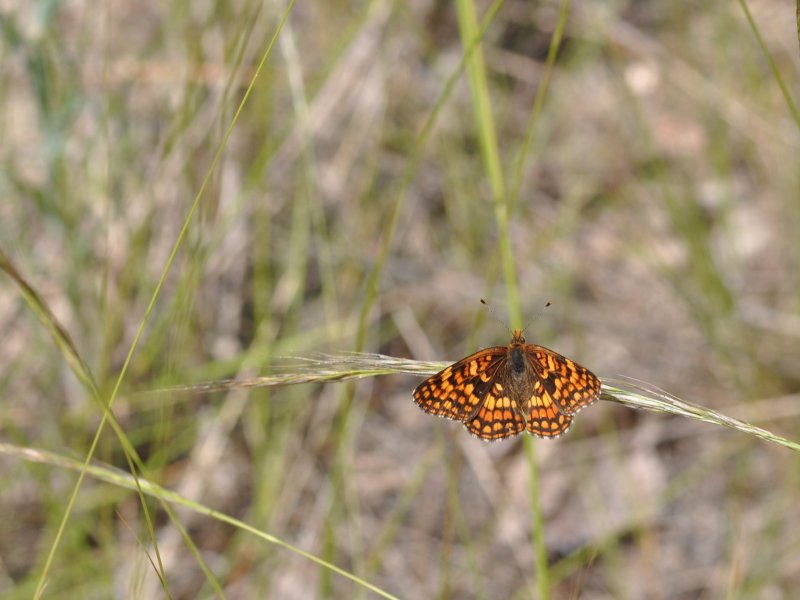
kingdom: Animalia
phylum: Arthropoda
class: Insecta
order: Lepidoptera
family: Nymphalidae
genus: Chlosyne
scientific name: Chlosyne palla
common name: Northern Checkerspot
